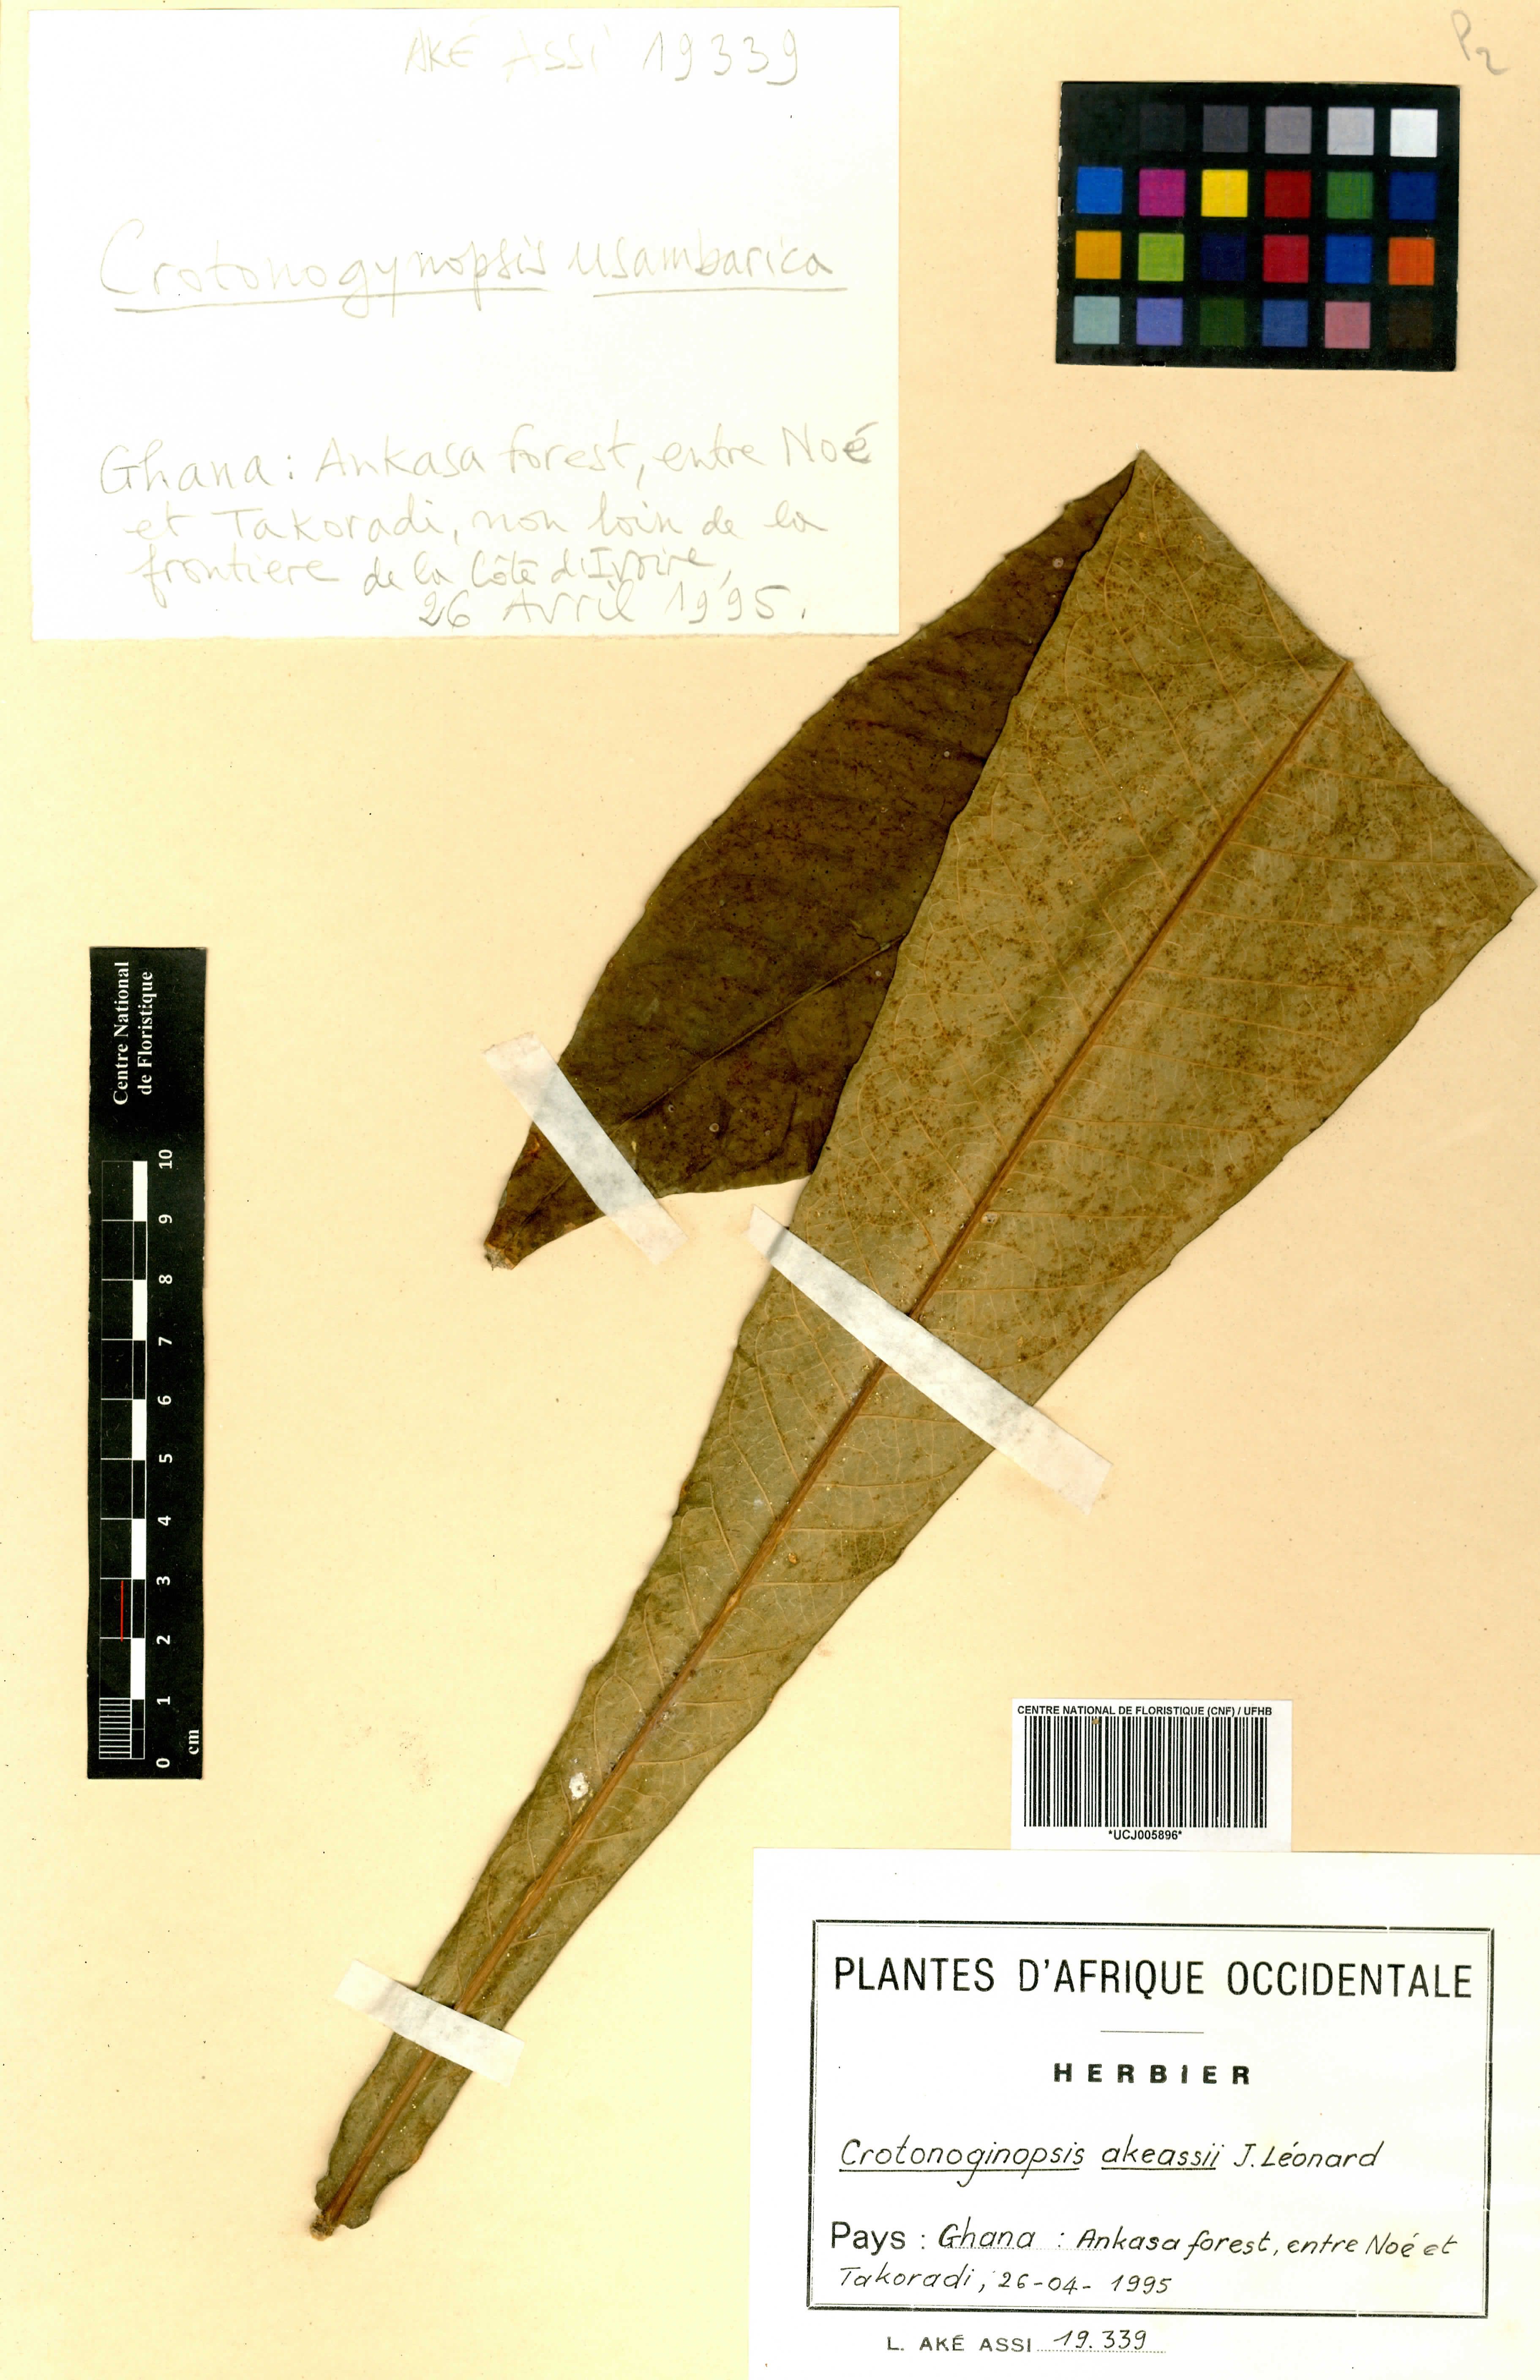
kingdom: Plantae
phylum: Tracheophyta
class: Magnoliopsida
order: Malpighiales
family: Euphorbiaceae
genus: Crotonogynopsis
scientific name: Crotonogynopsis akeassii
